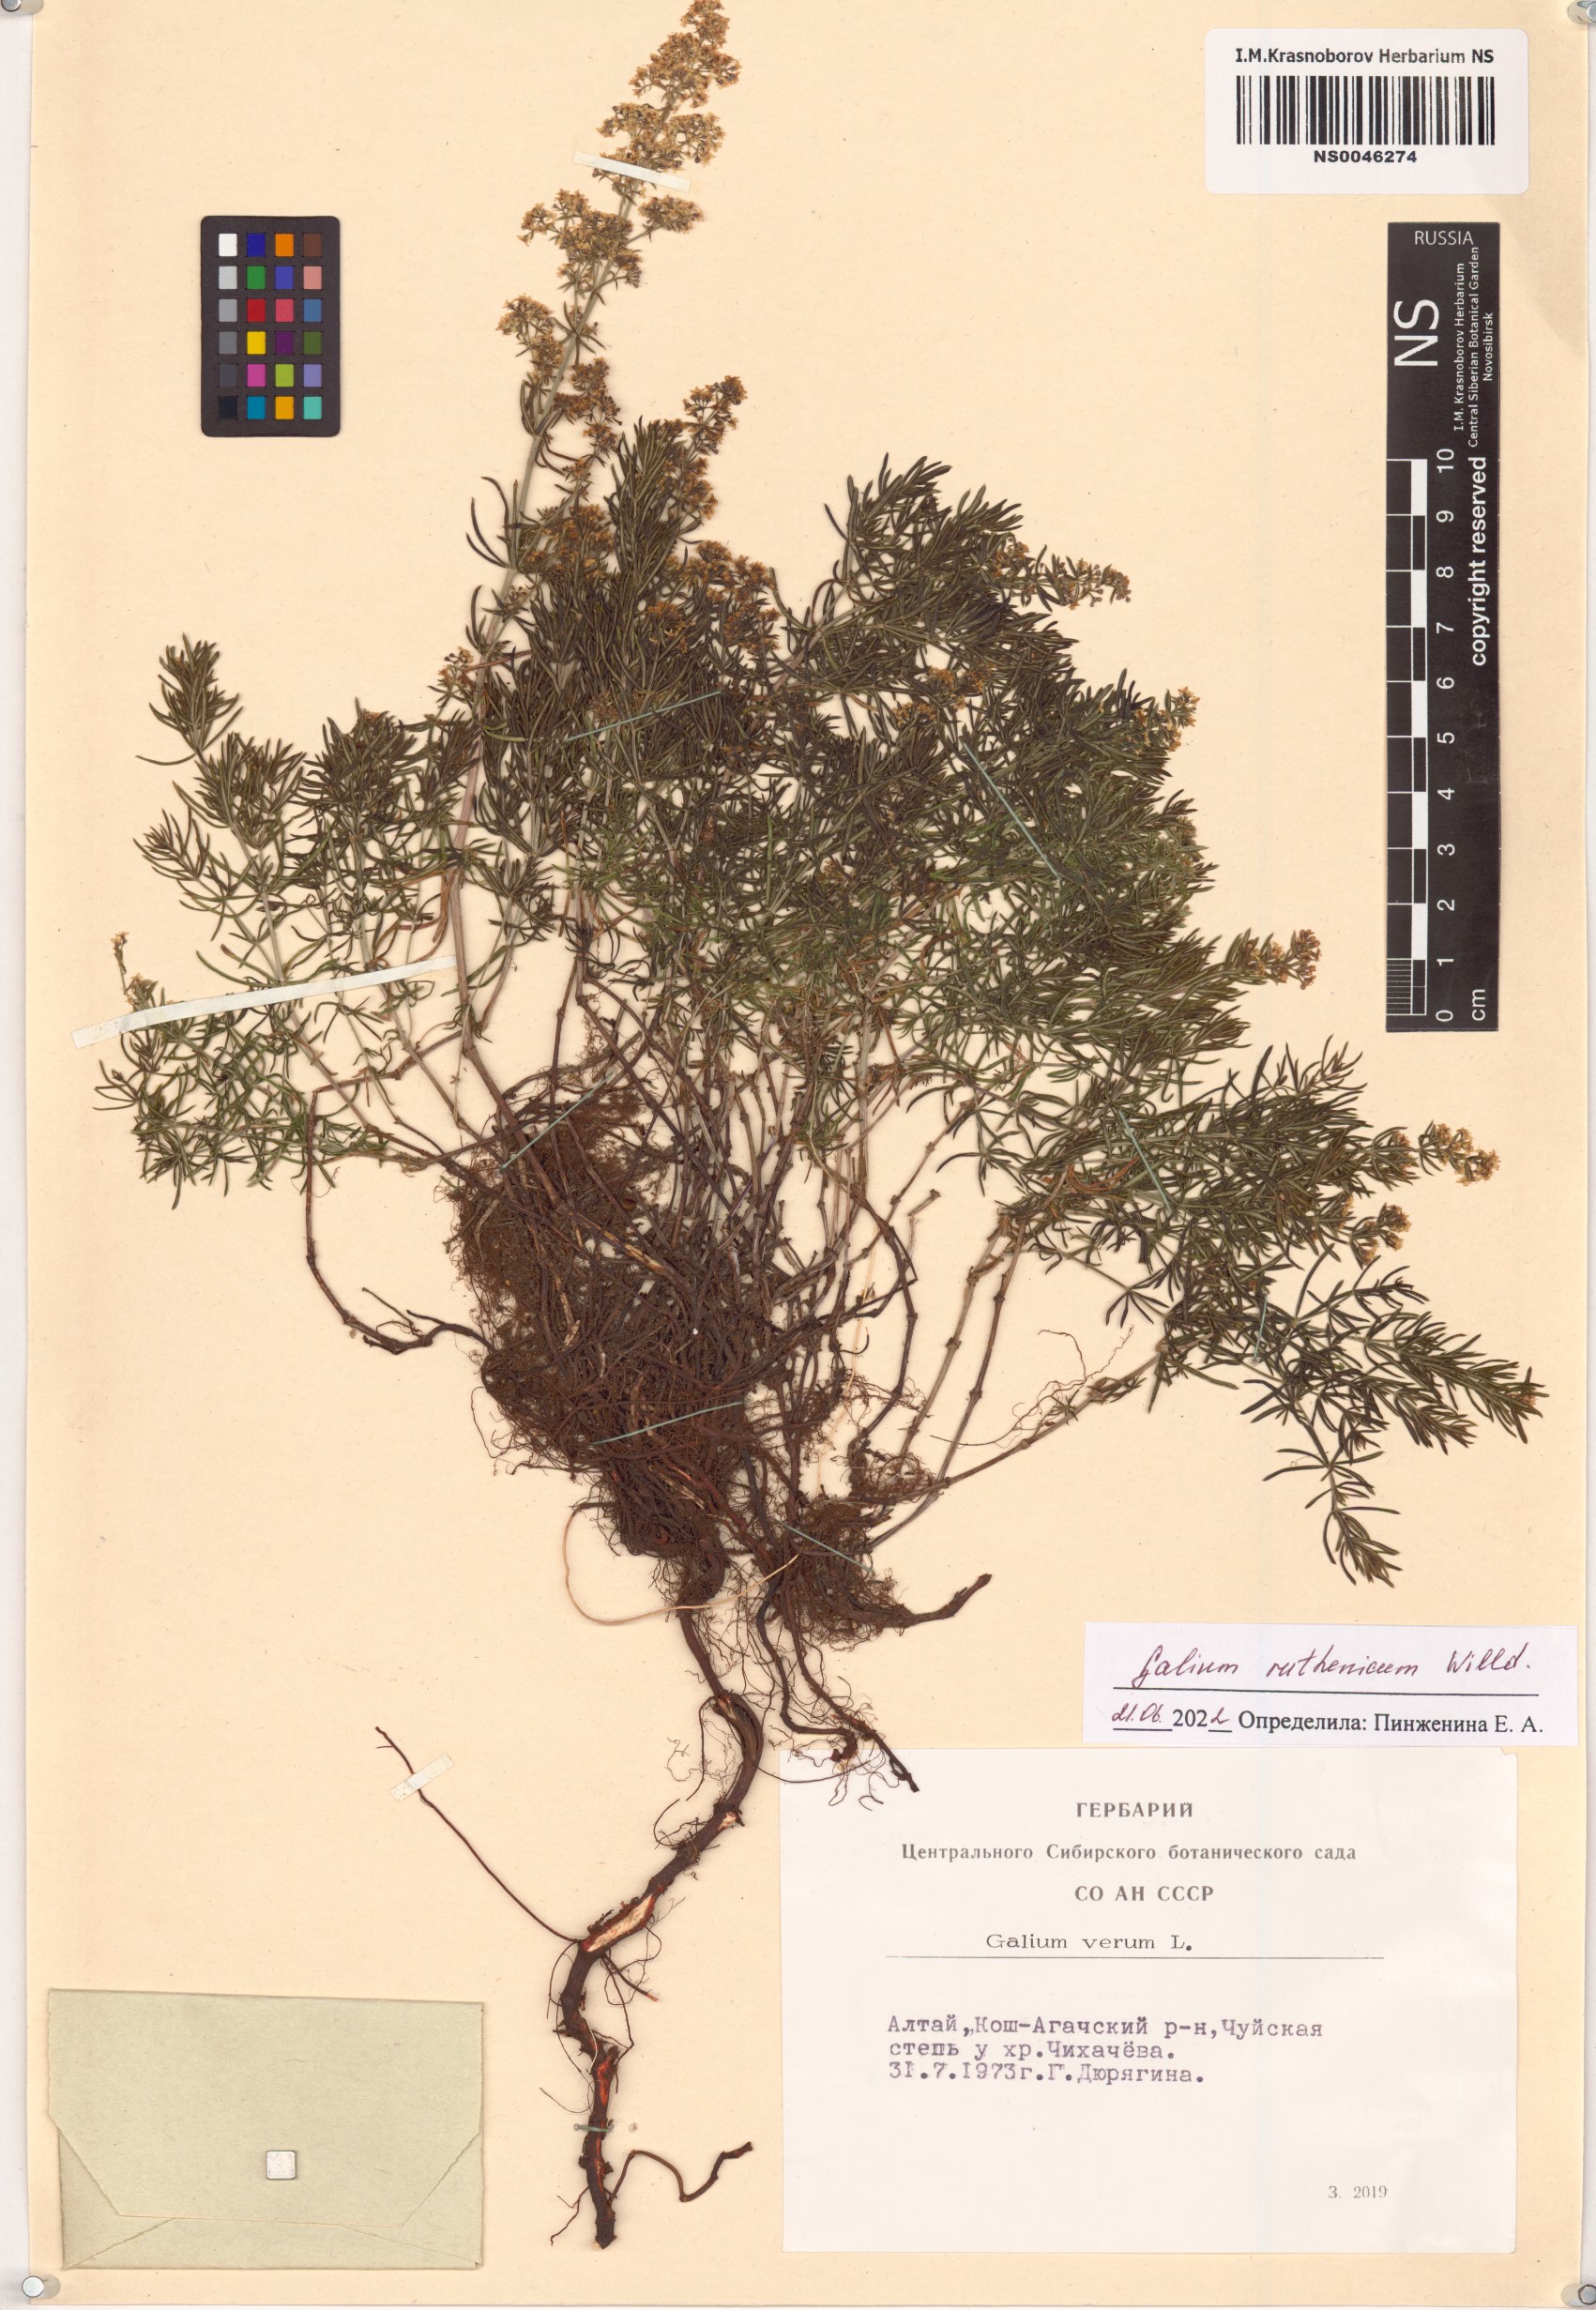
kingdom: Plantae
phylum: Tracheophyta
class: Magnoliopsida
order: Gentianales
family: Rubiaceae
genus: Galium
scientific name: Galium verum
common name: Lady's bedstraw
